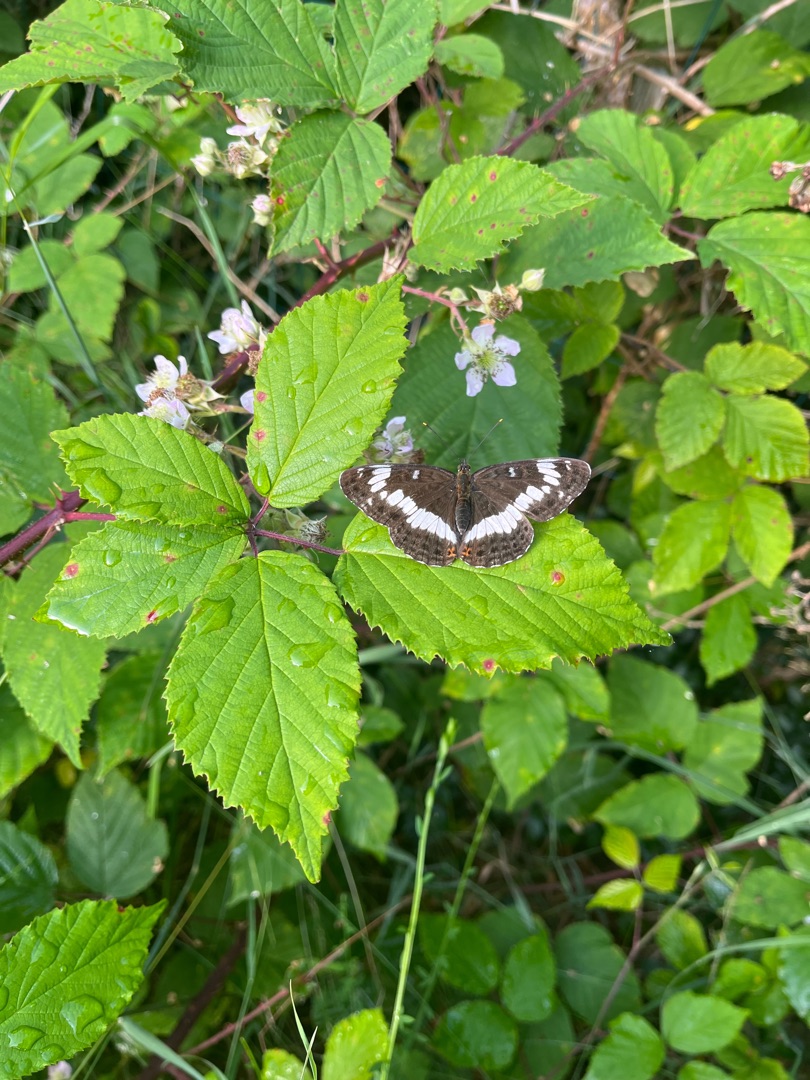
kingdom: Animalia
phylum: Arthropoda
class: Insecta
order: Lepidoptera
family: Nymphalidae
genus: Ladoga
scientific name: Ladoga camilla
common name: Hvid admiral
